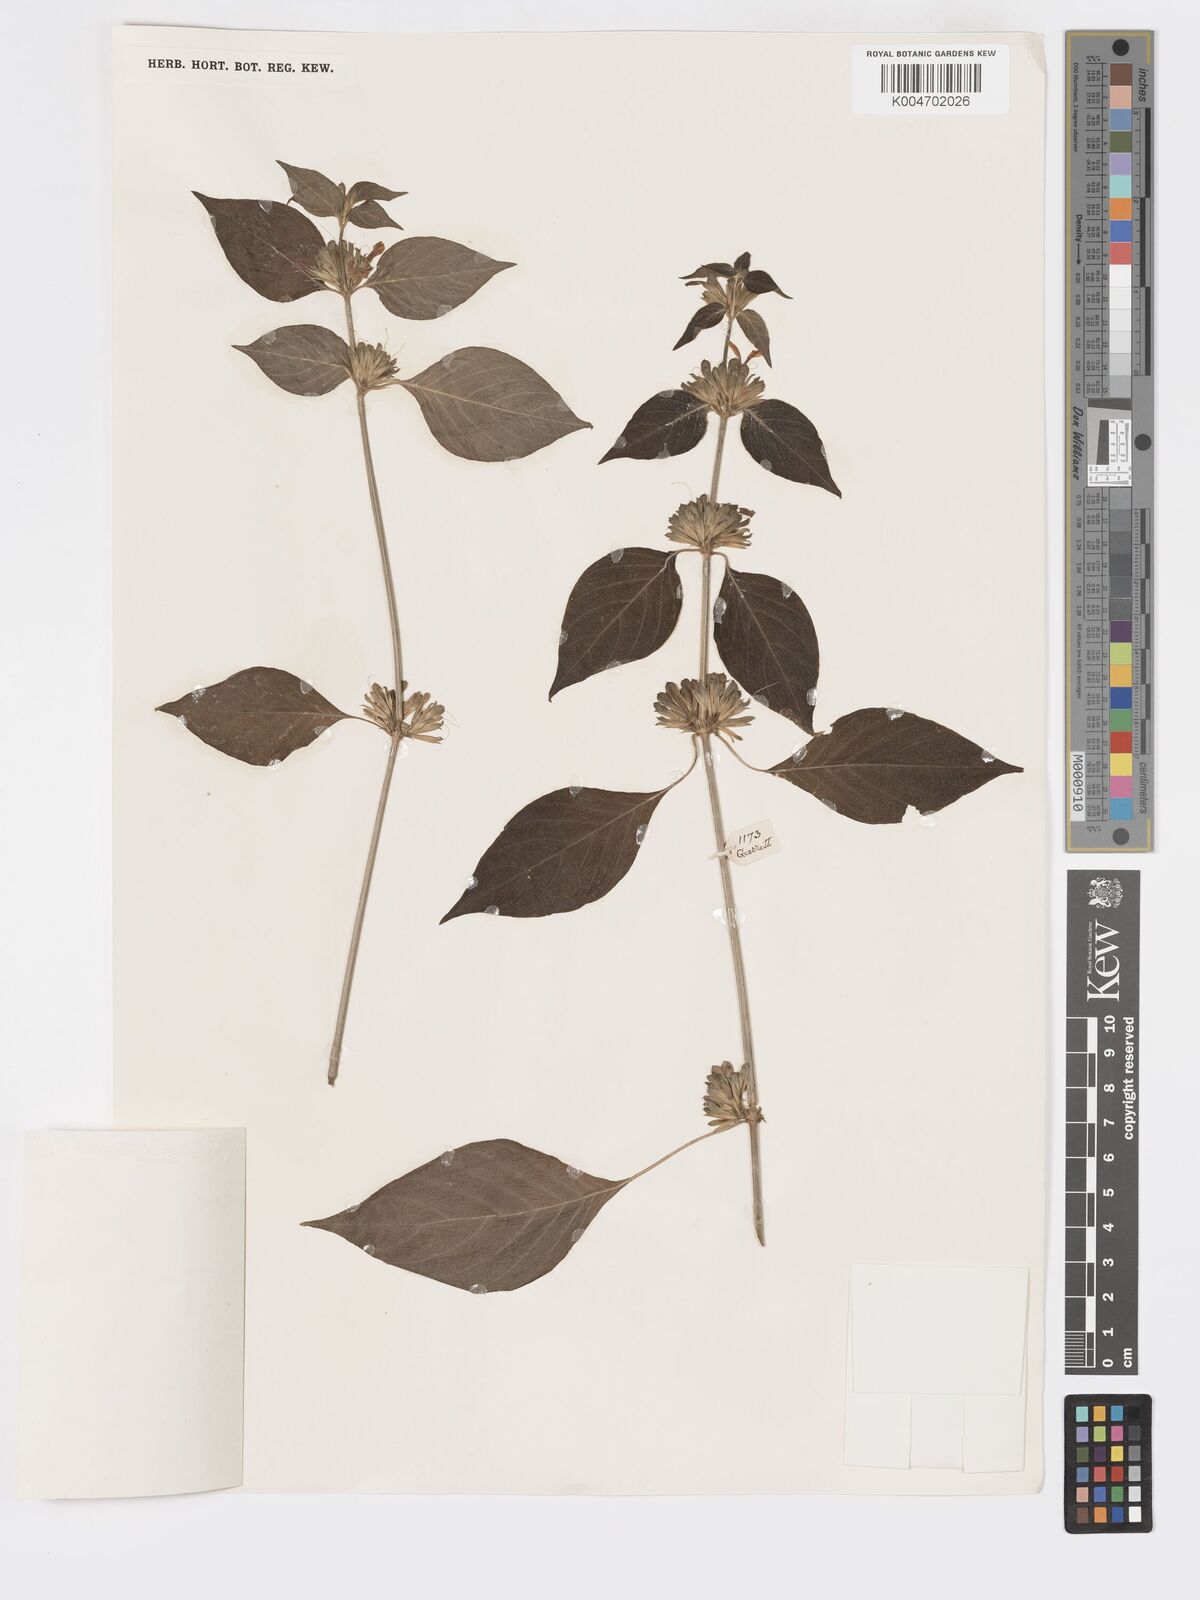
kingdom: Plantae
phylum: Tracheophyta
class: Magnoliopsida
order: Lamiales
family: Acanthaceae
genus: Dicliptera
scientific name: Dicliptera
